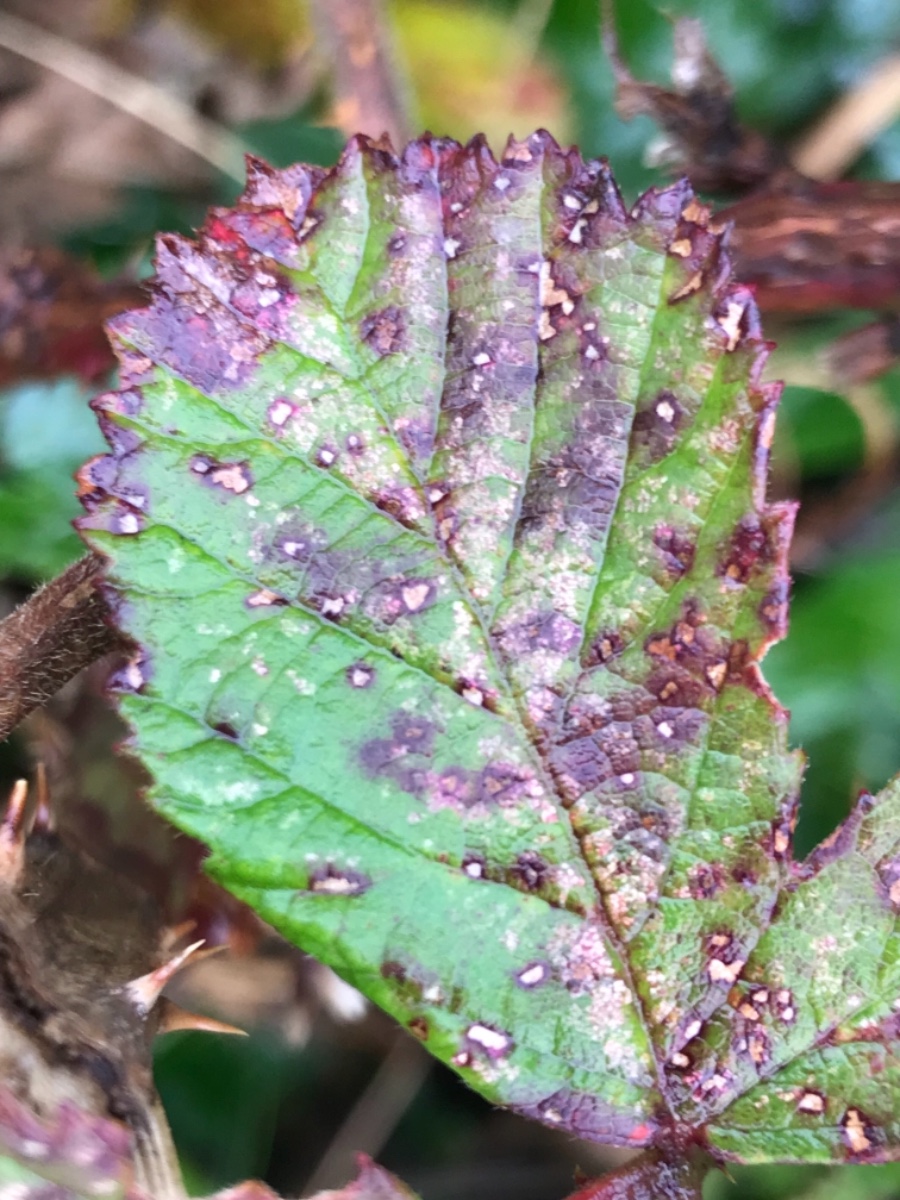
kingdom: Fungi
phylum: Basidiomycota
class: Pucciniomycetes
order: Pucciniales
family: Phragmidiaceae
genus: Phragmidium
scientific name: Phragmidium
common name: flercellerust
